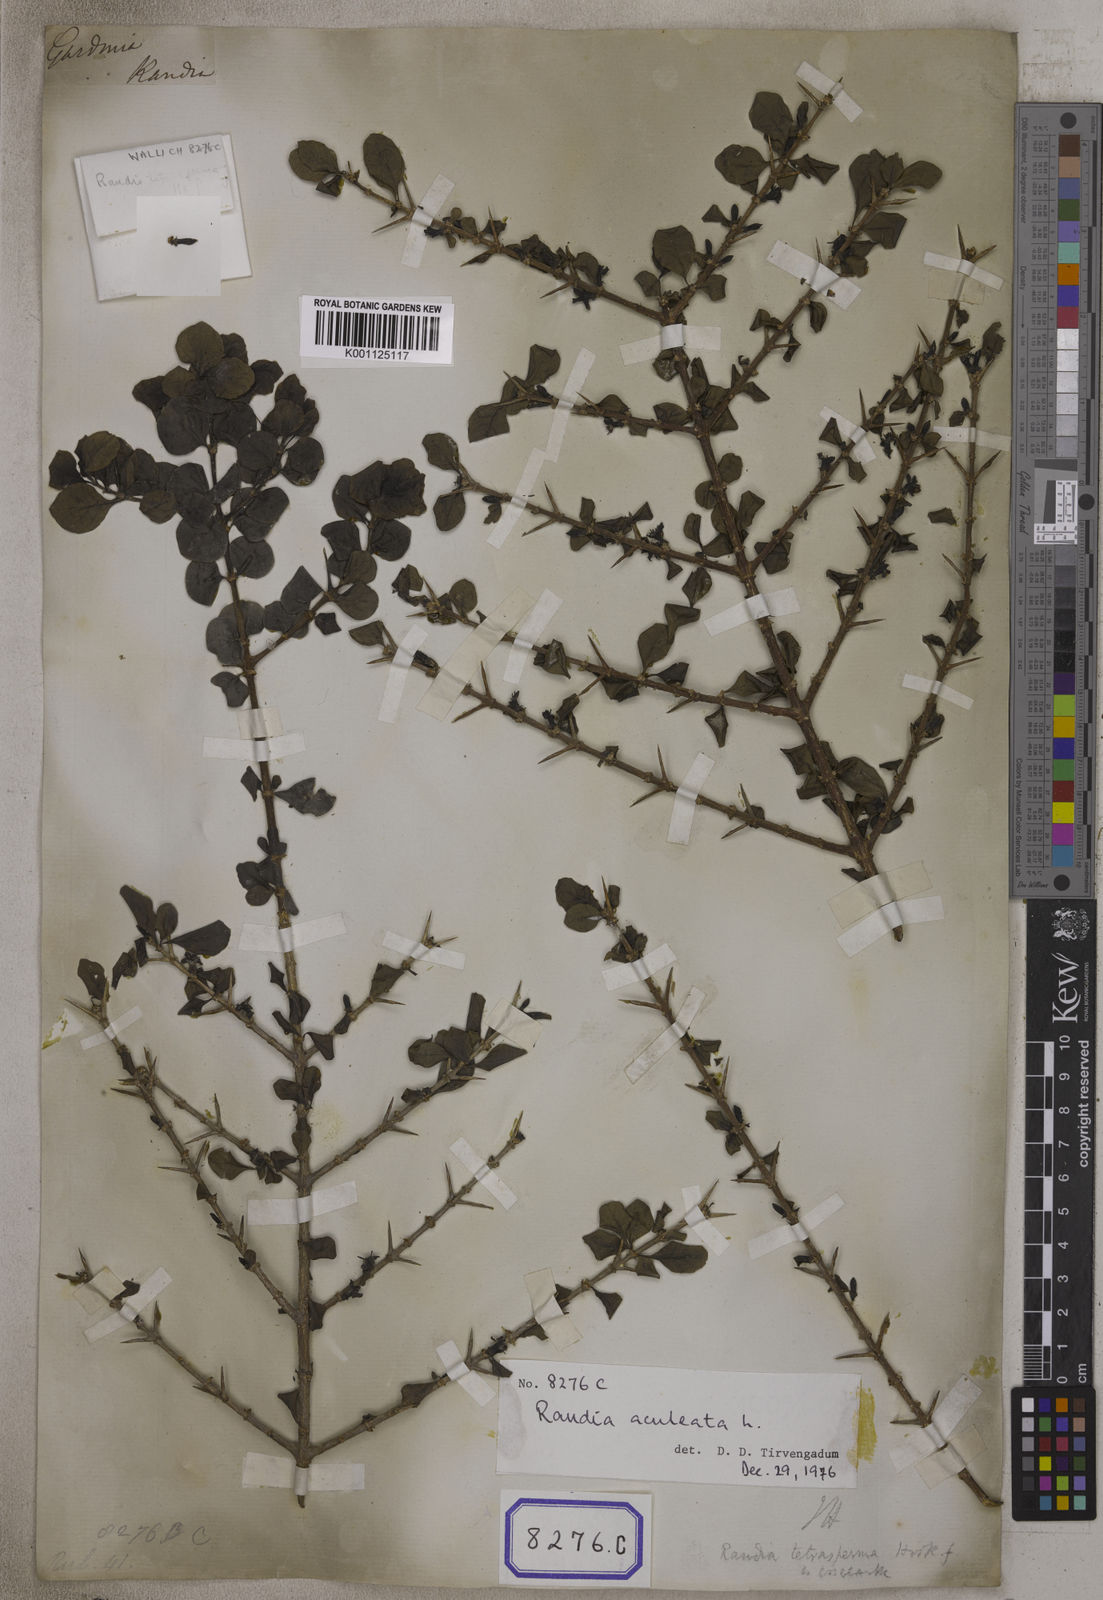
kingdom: Plantae
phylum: Tracheophyta
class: Magnoliopsida
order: Gentianales
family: Rubiaceae
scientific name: Rubiaceae
